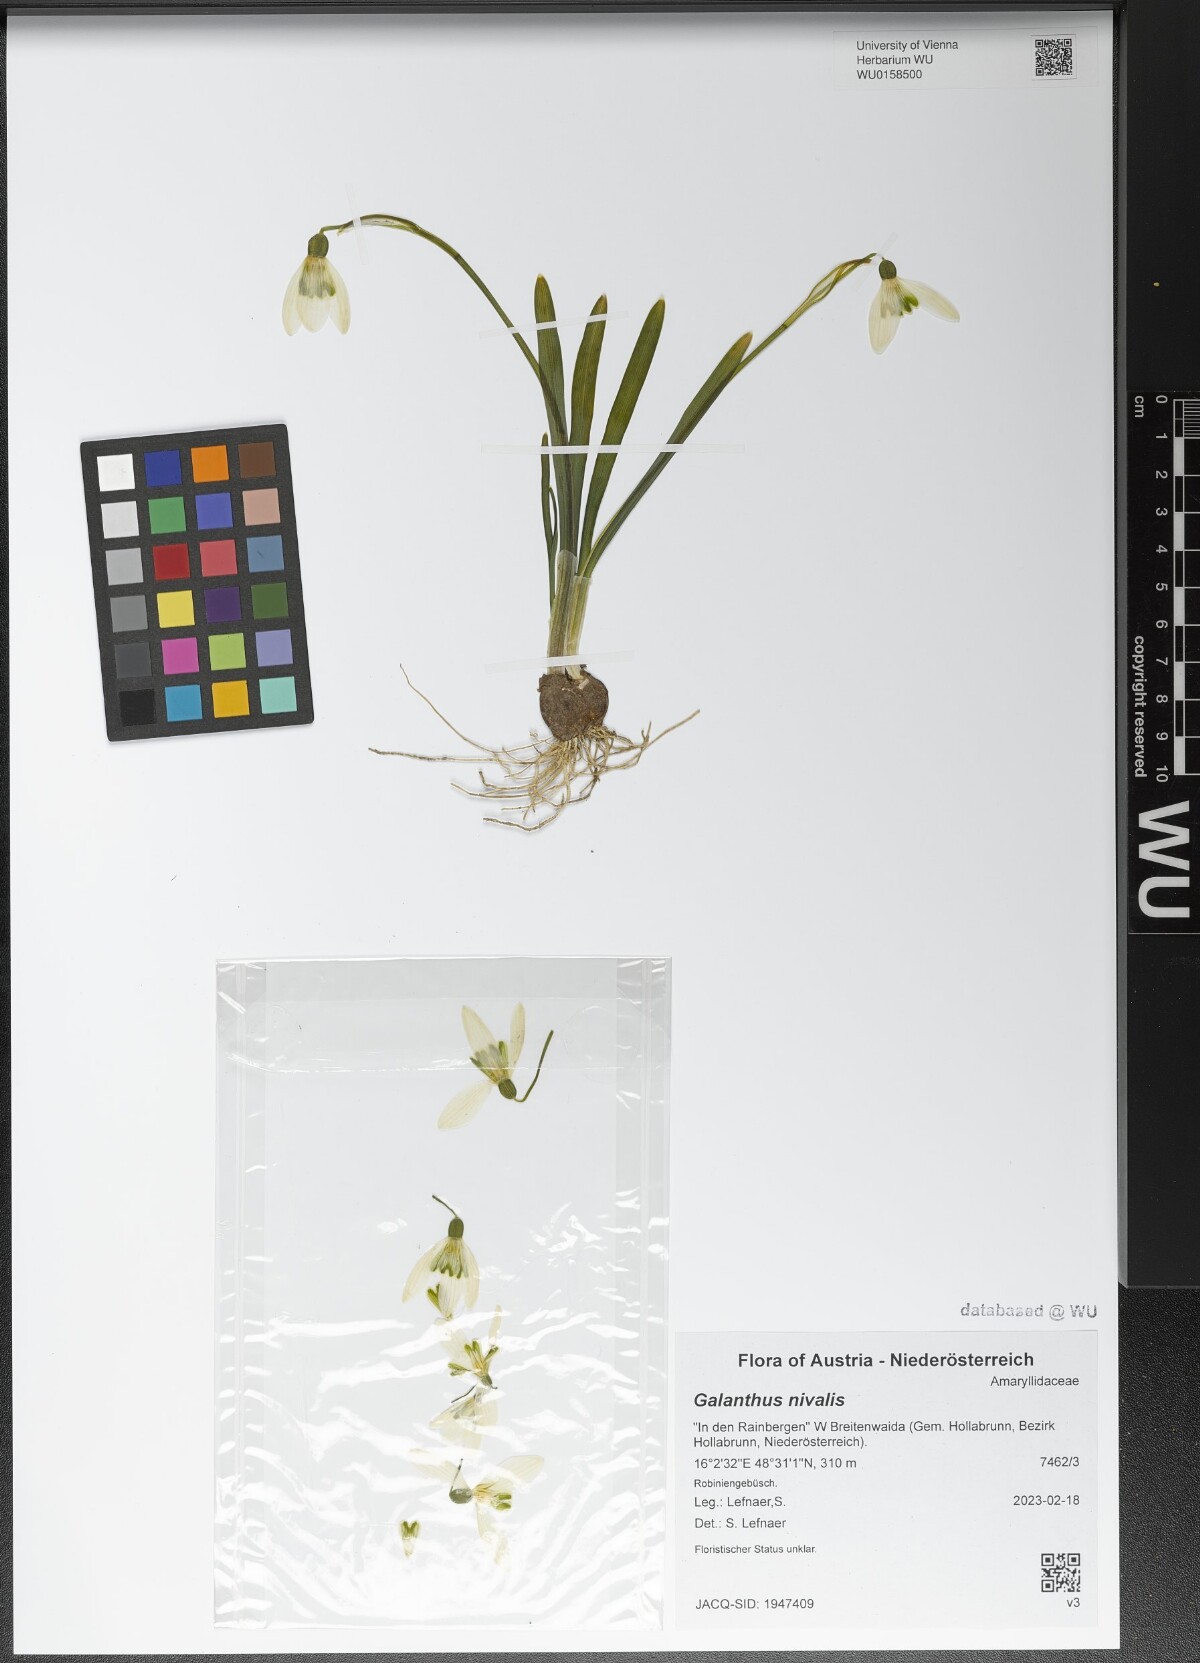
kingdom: Plantae
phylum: Tracheophyta
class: Liliopsida
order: Asparagales
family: Amaryllidaceae
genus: Galanthus
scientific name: Galanthus nivalis
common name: Snowdrop
